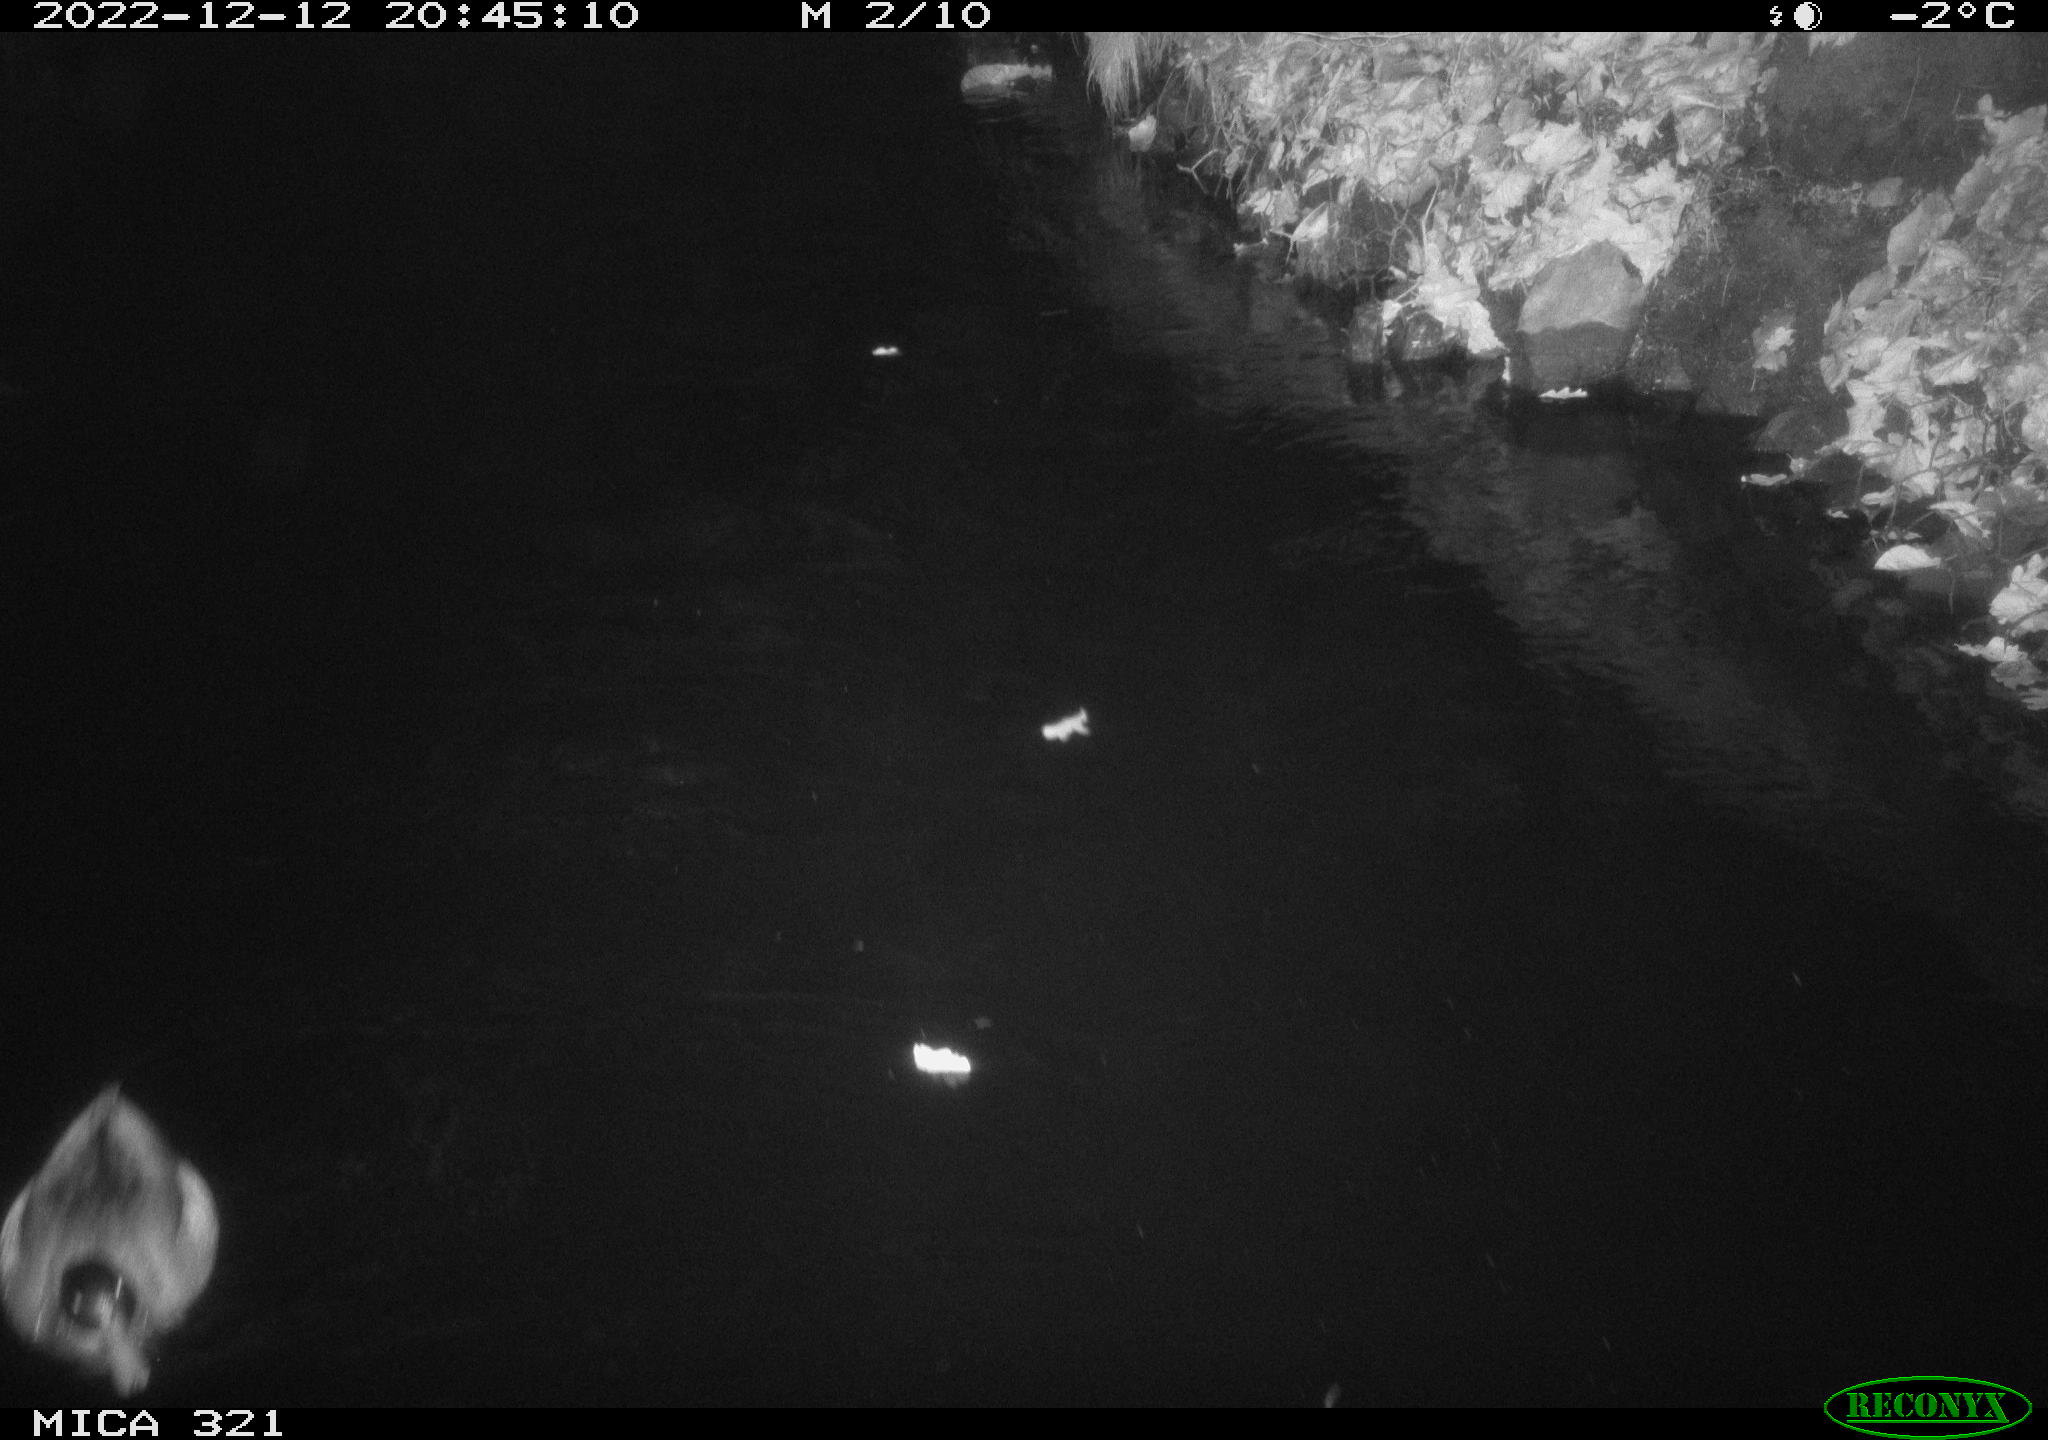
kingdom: Animalia
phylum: Chordata
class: Aves
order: Anseriformes
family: Anatidae
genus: Anas
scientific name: Anas
